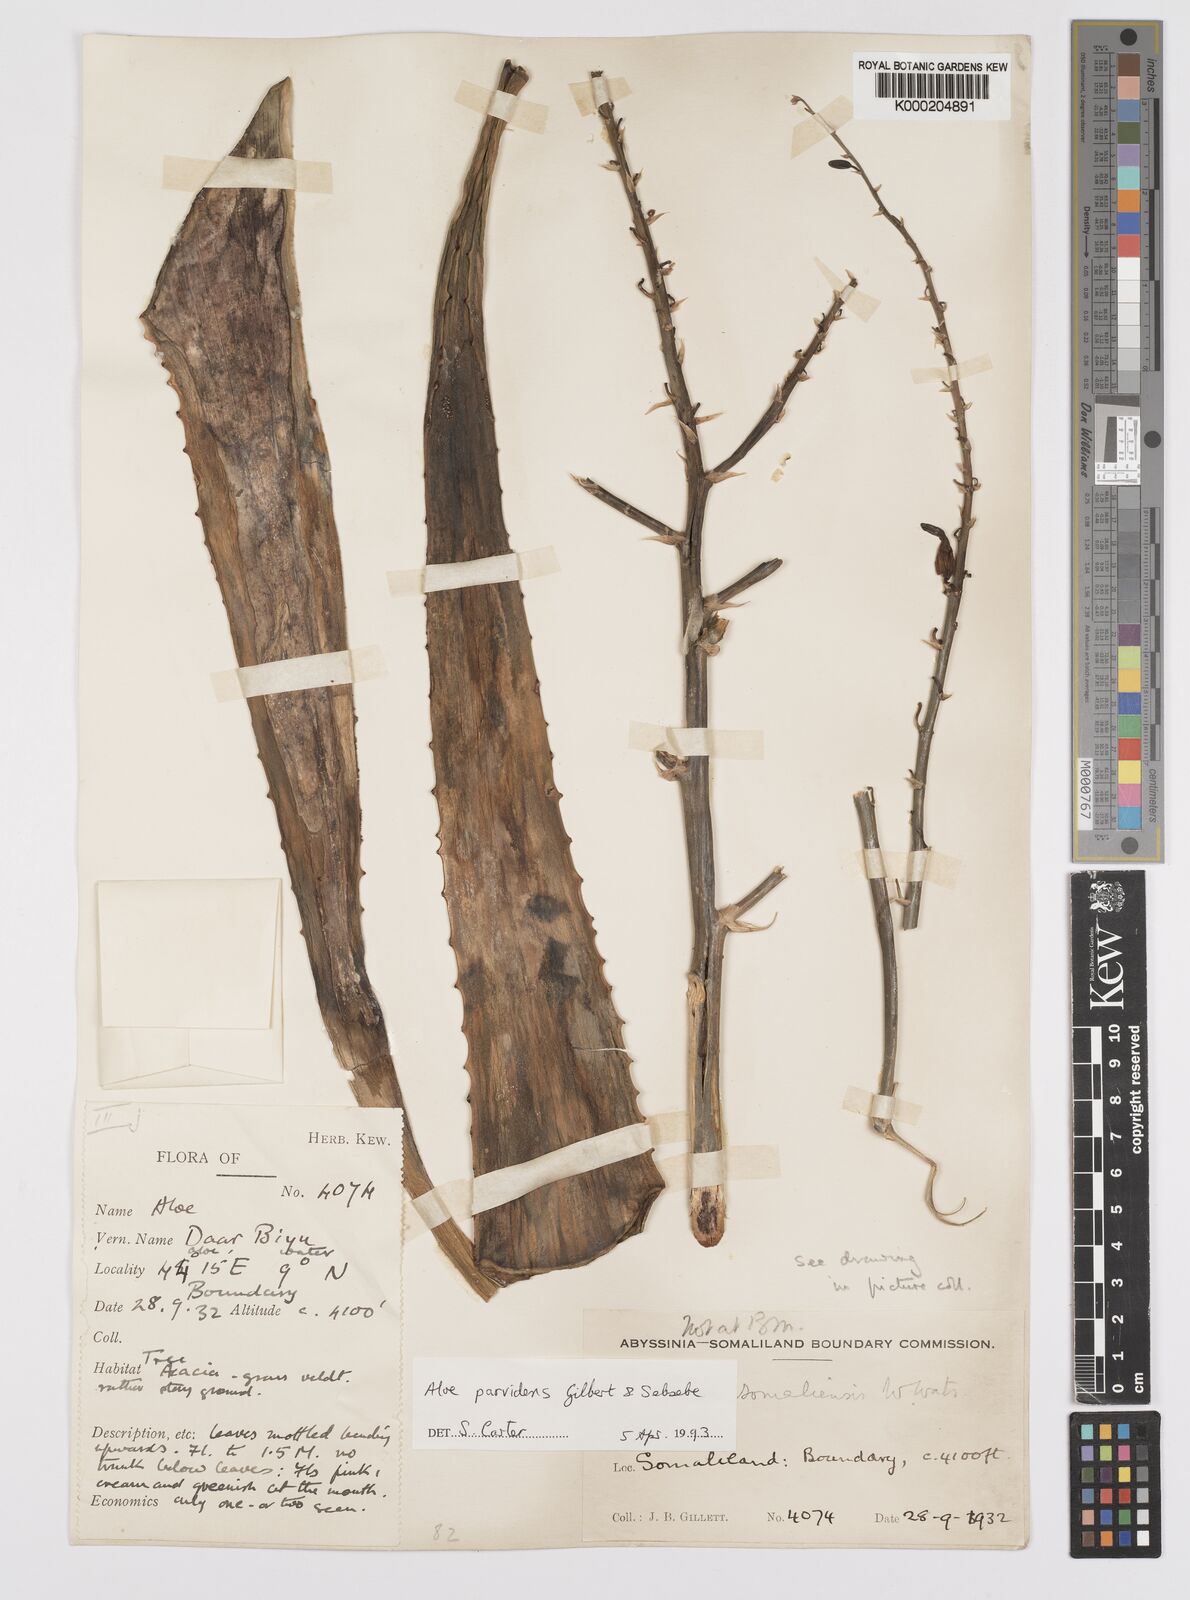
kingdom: Plantae
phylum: Tracheophyta
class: Liliopsida
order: Asparagales
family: Asphodelaceae
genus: Aloe
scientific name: Aloe parvidens
